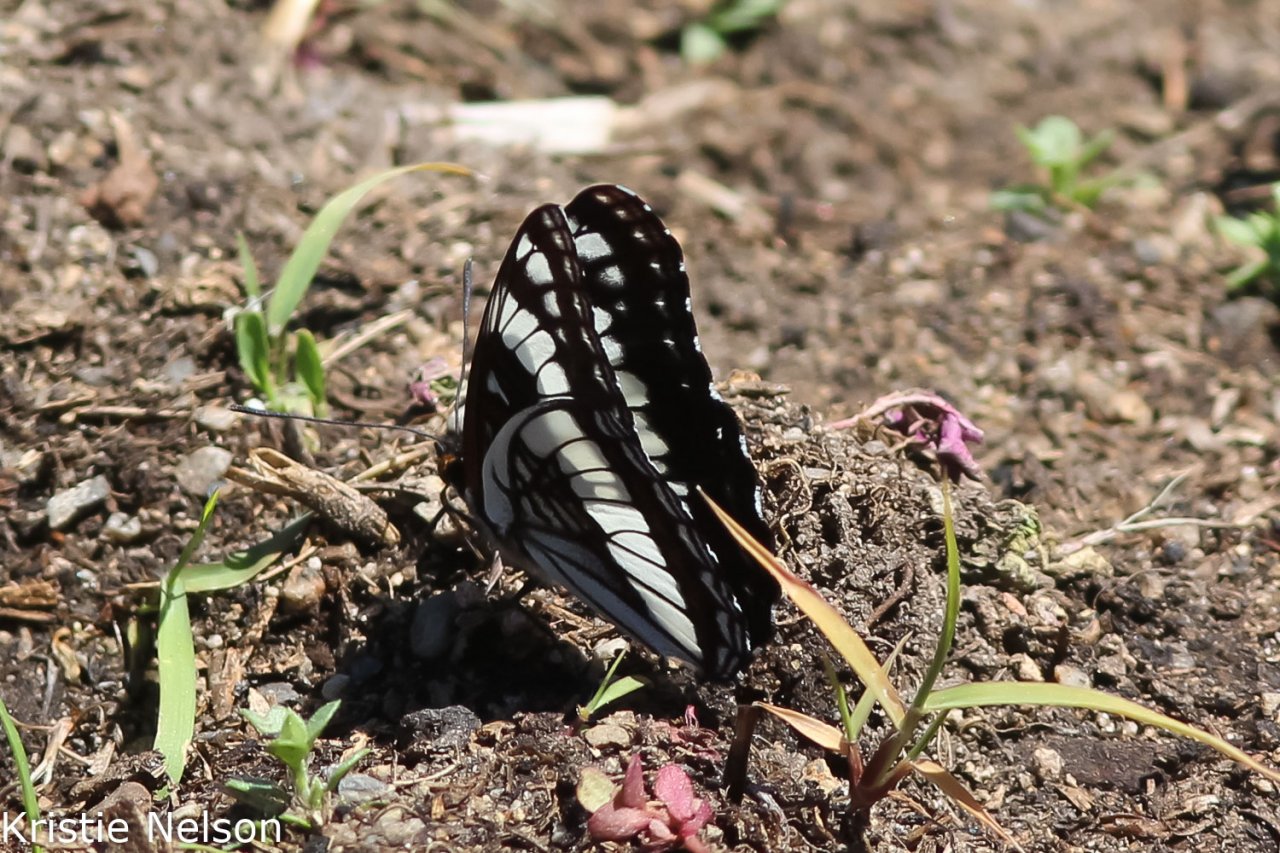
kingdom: Animalia
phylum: Arthropoda
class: Insecta
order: Lepidoptera
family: Nymphalidae
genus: Limenitis
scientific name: Limenitis
